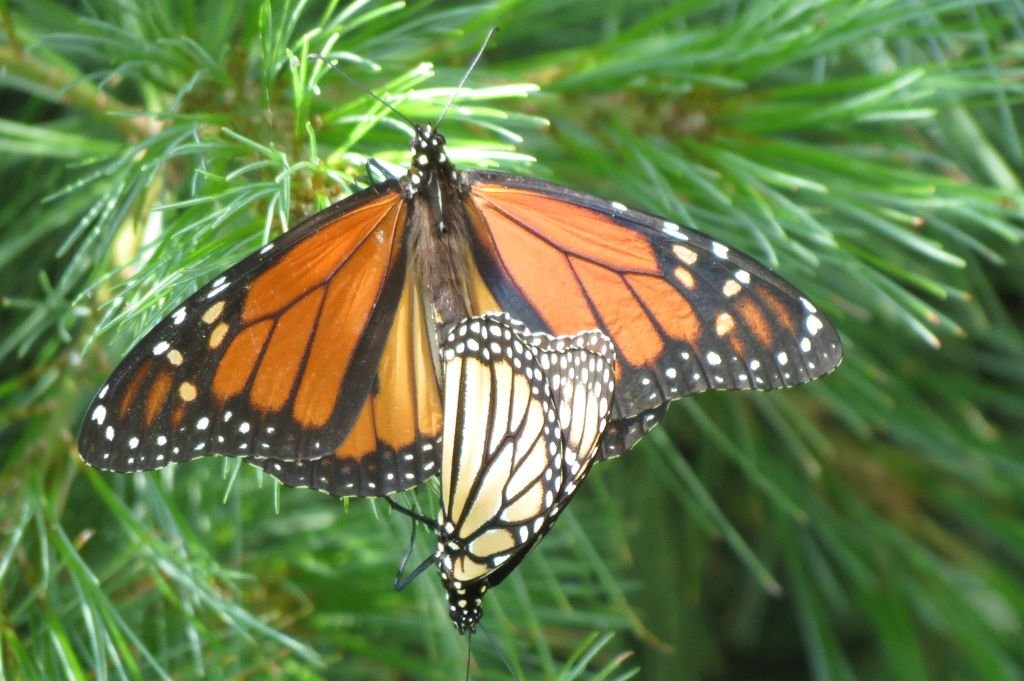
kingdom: Animalia
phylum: Arthropoda
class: Insecta
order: Lepidoptera
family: Nymphalidae
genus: Danaus
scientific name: Danaus plexippus
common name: Monarch
